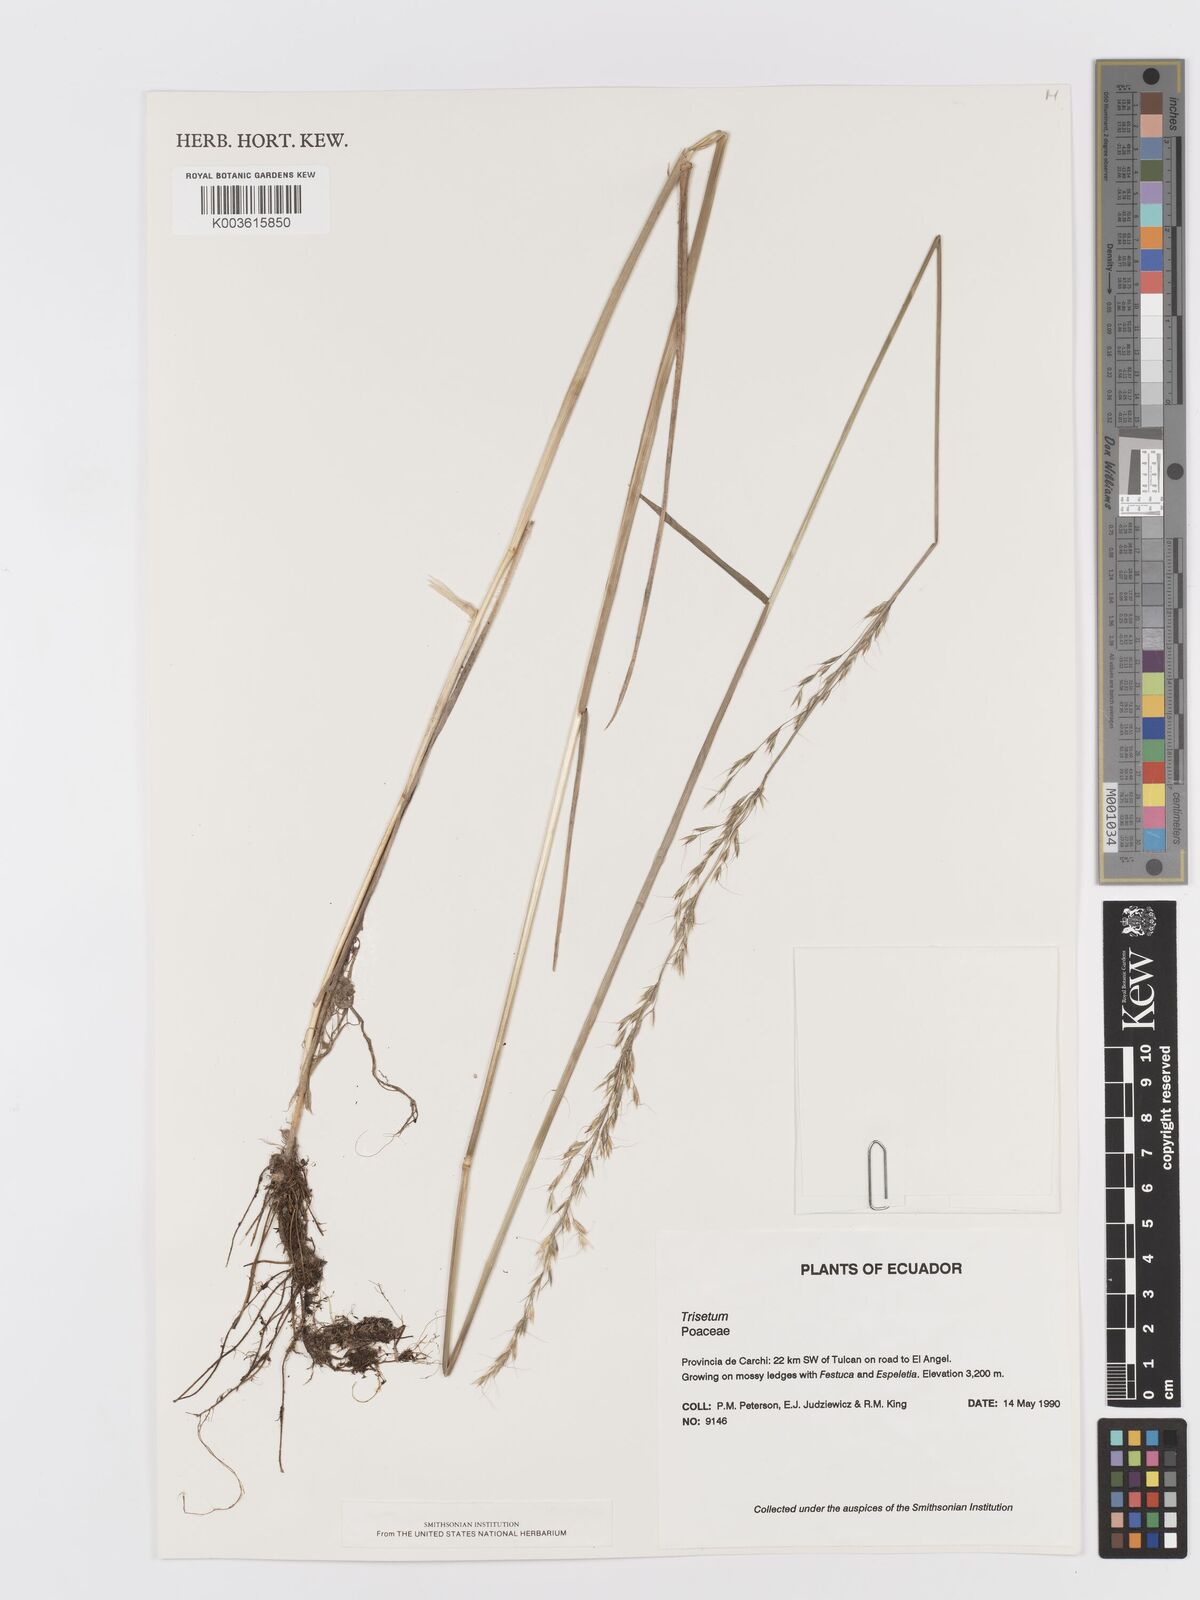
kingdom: Plantae
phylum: Tracheophyta
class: Liliopsida
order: Poales
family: Poaceae
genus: Peyritschia
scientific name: Peyritschia irazuensis
